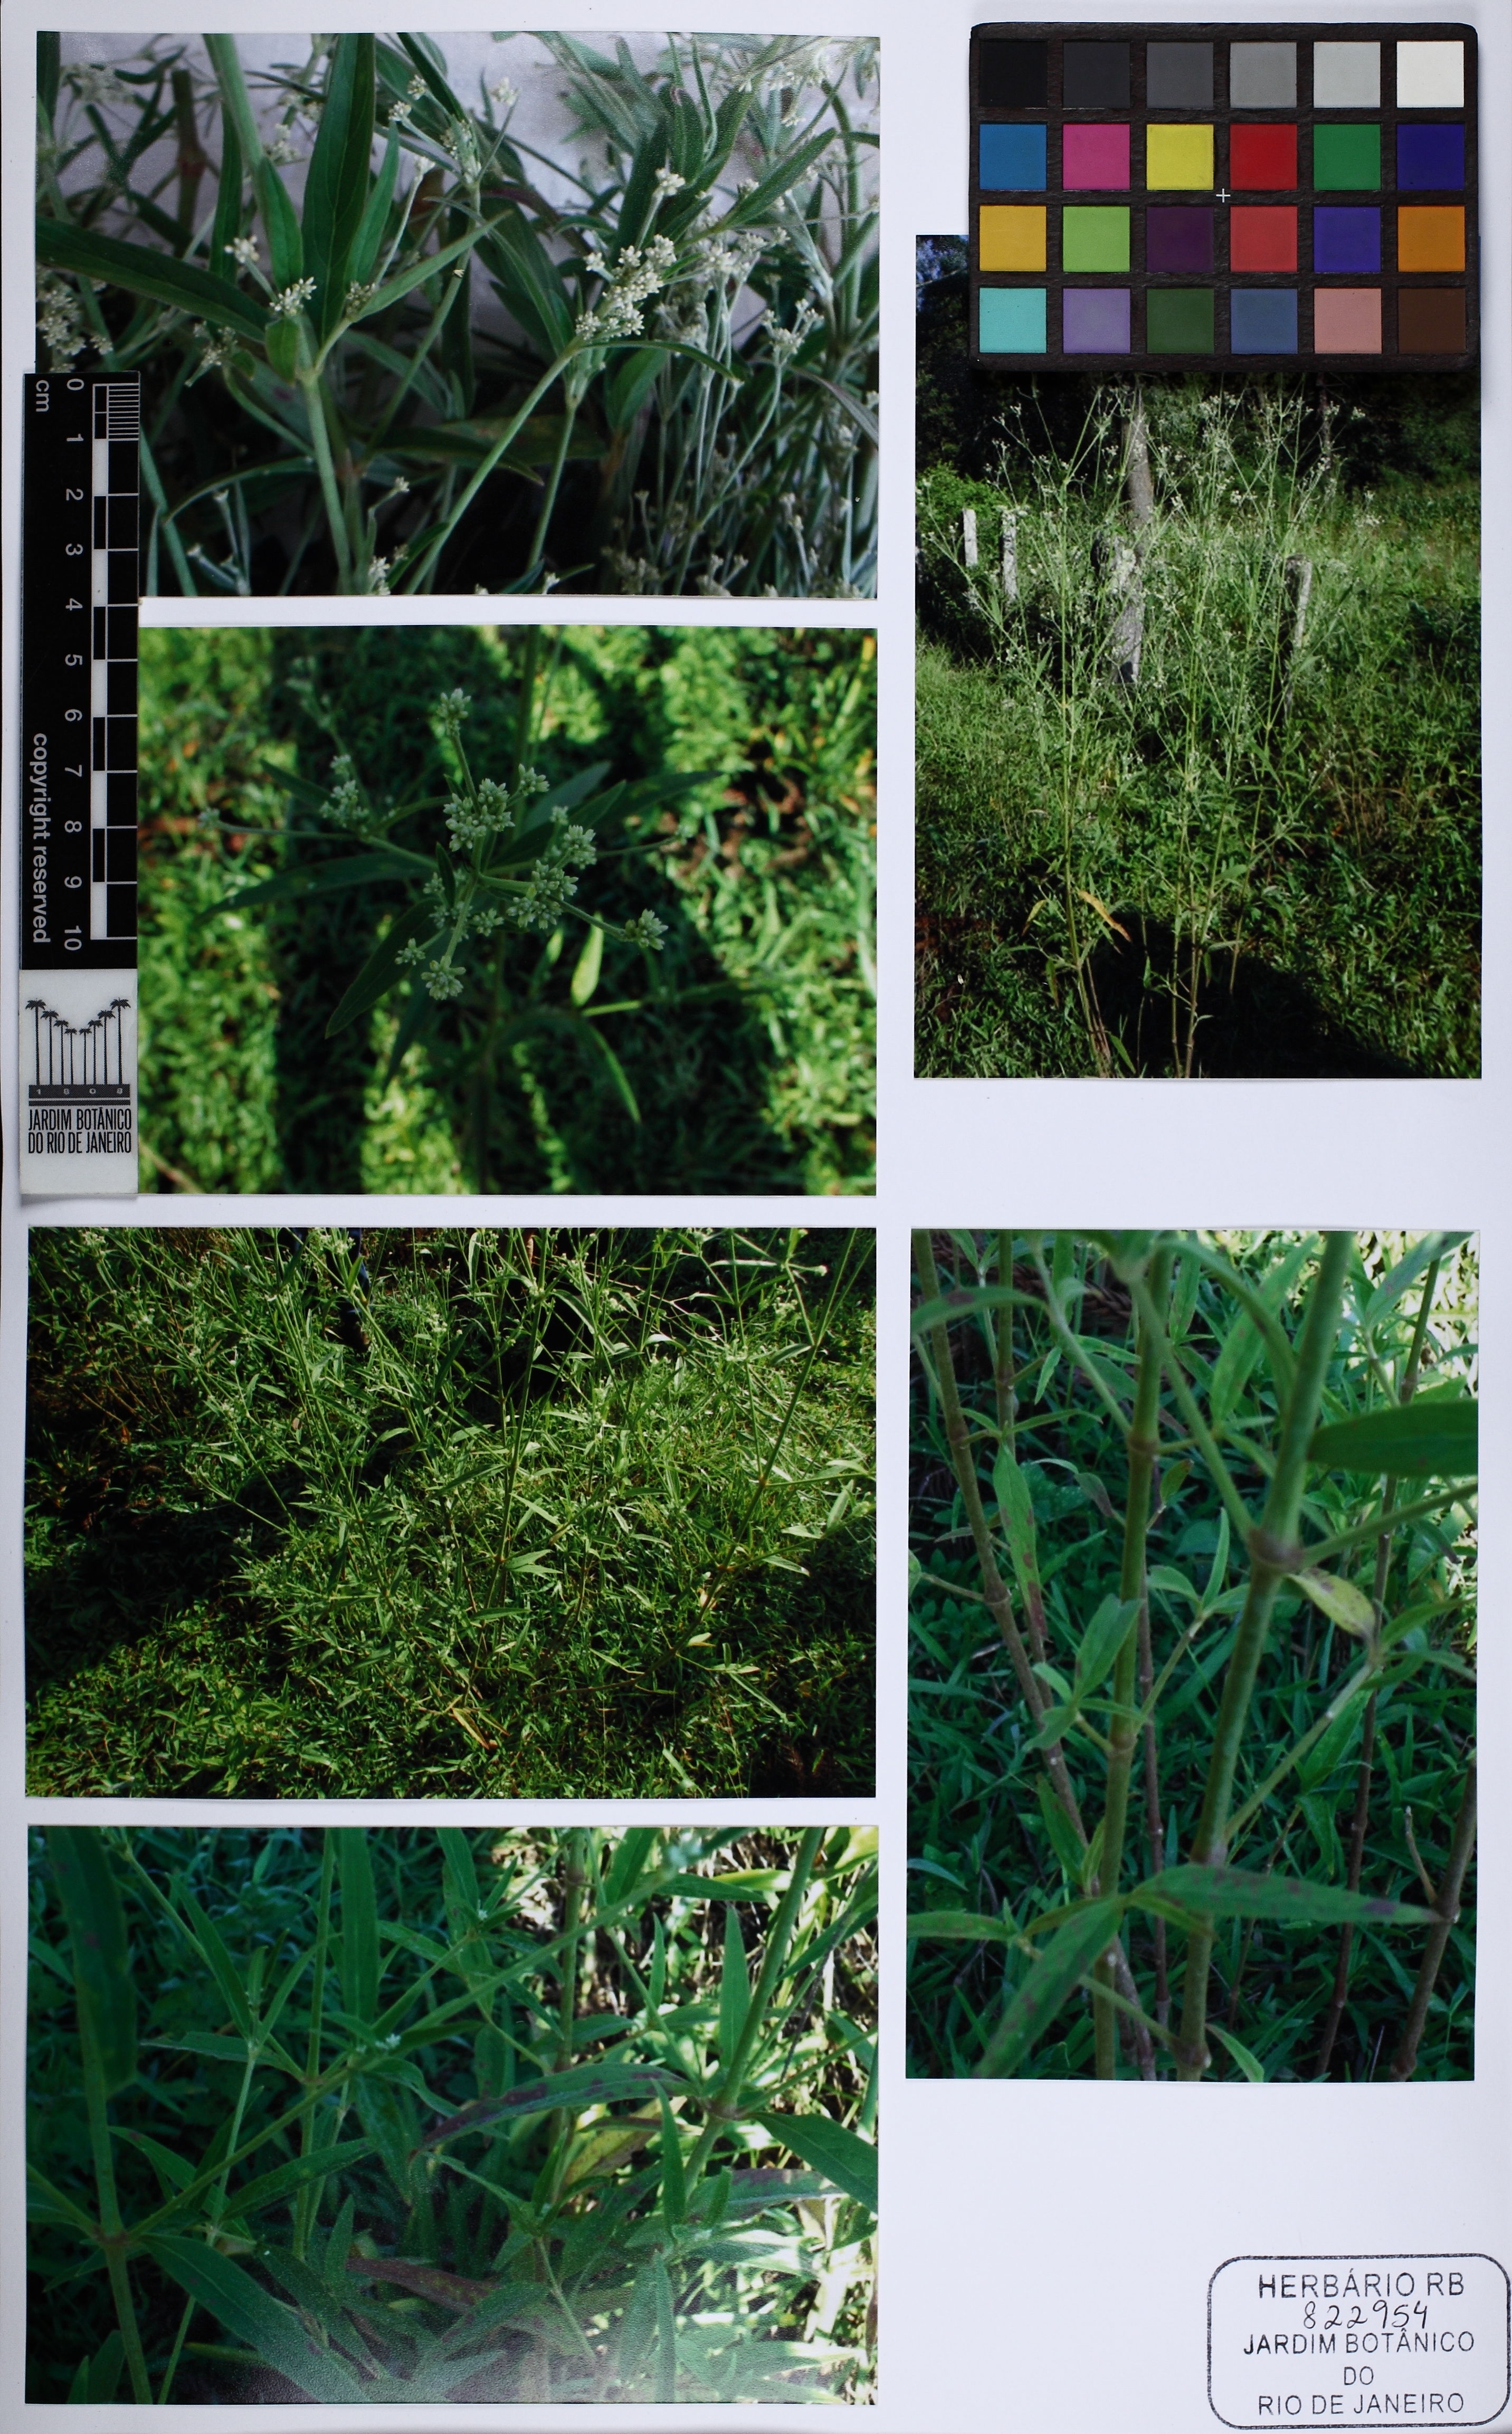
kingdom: Plantae
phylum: Tracheophyta
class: Magnoliopsida
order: Caryophyllales
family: Amaranthaceae
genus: Pfaffia
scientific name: Pfaffia
